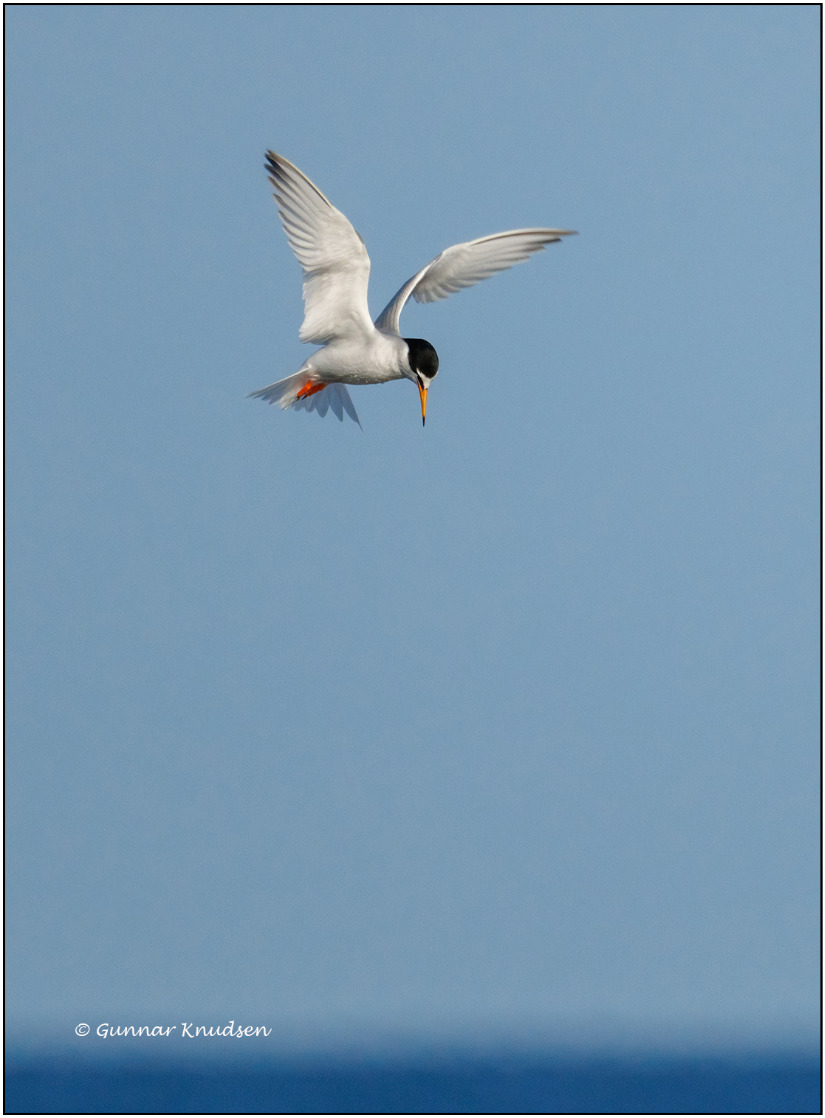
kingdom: Animalia
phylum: Chordata
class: Aves
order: Charadriiformes
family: Laridae
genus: Sternula
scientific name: Sternula albifrons
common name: Dværgterne
